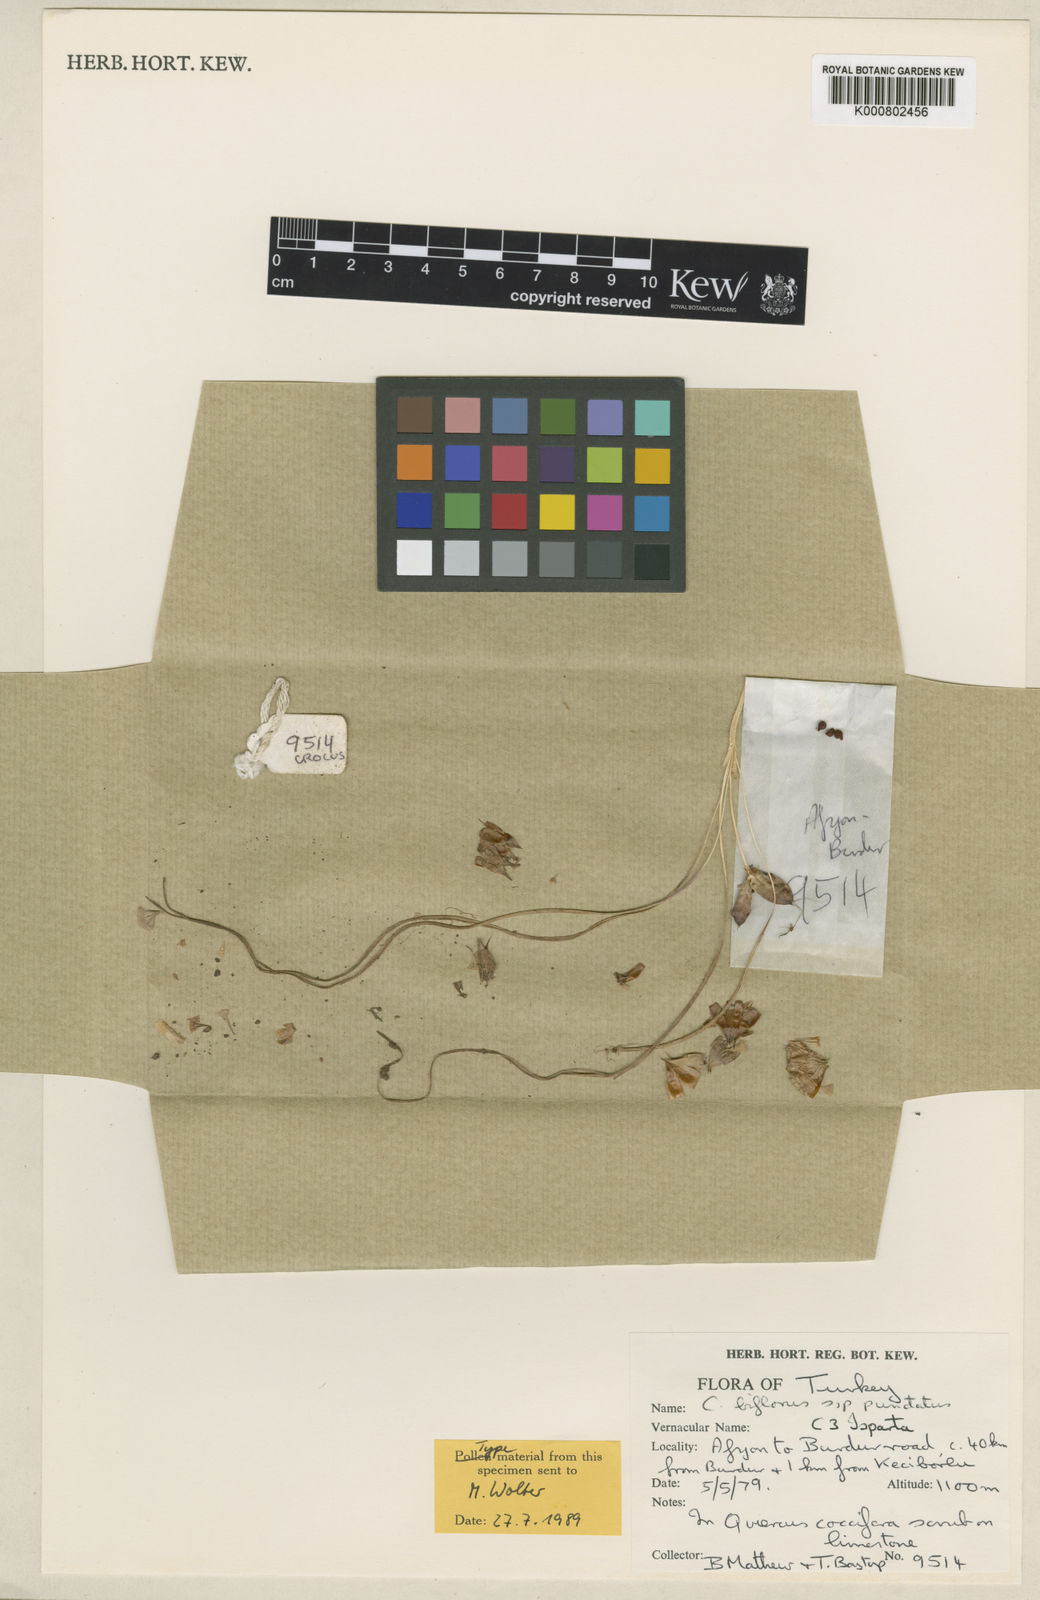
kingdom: Plantae
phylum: Tracheophyta
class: Liliopsida
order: Asparagales
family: Iridaceae
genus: Crocus
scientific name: Crocus punctatus
